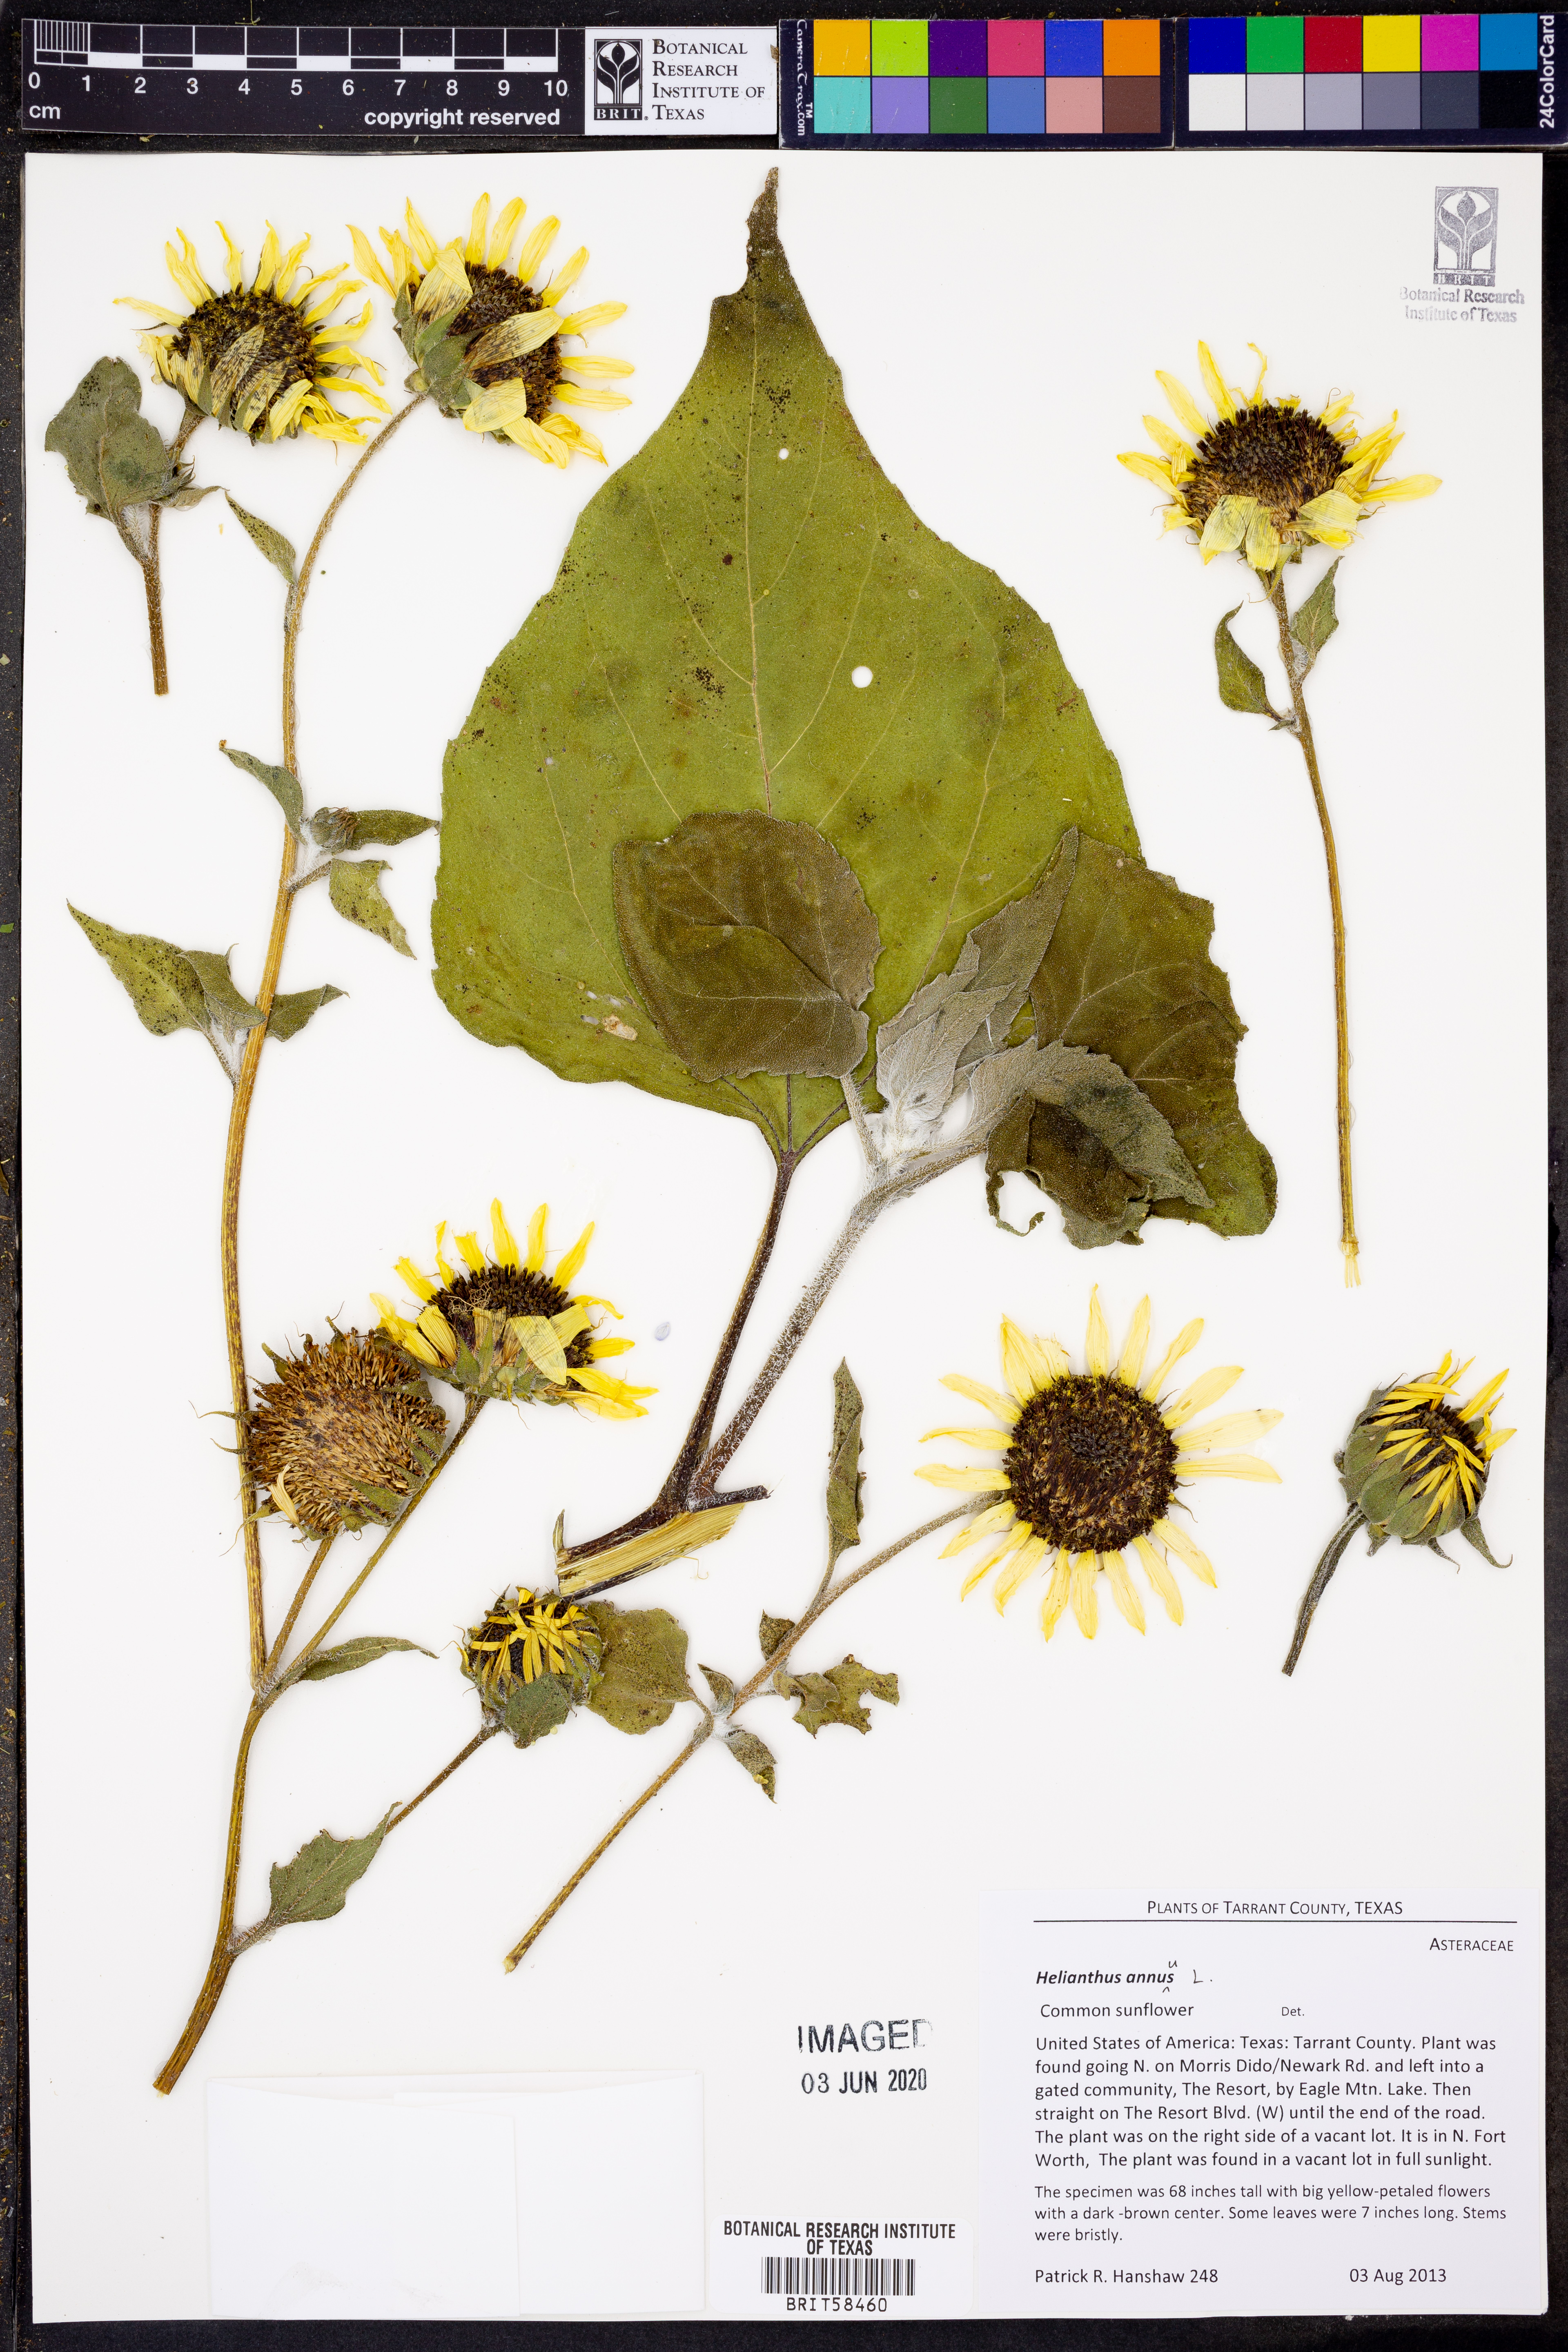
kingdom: Plantae
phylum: Tracheophyta
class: Magnoliopsida
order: Asterales
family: Asteraceae
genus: Helianthus
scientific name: Helianthus annuus
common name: Sunflower
